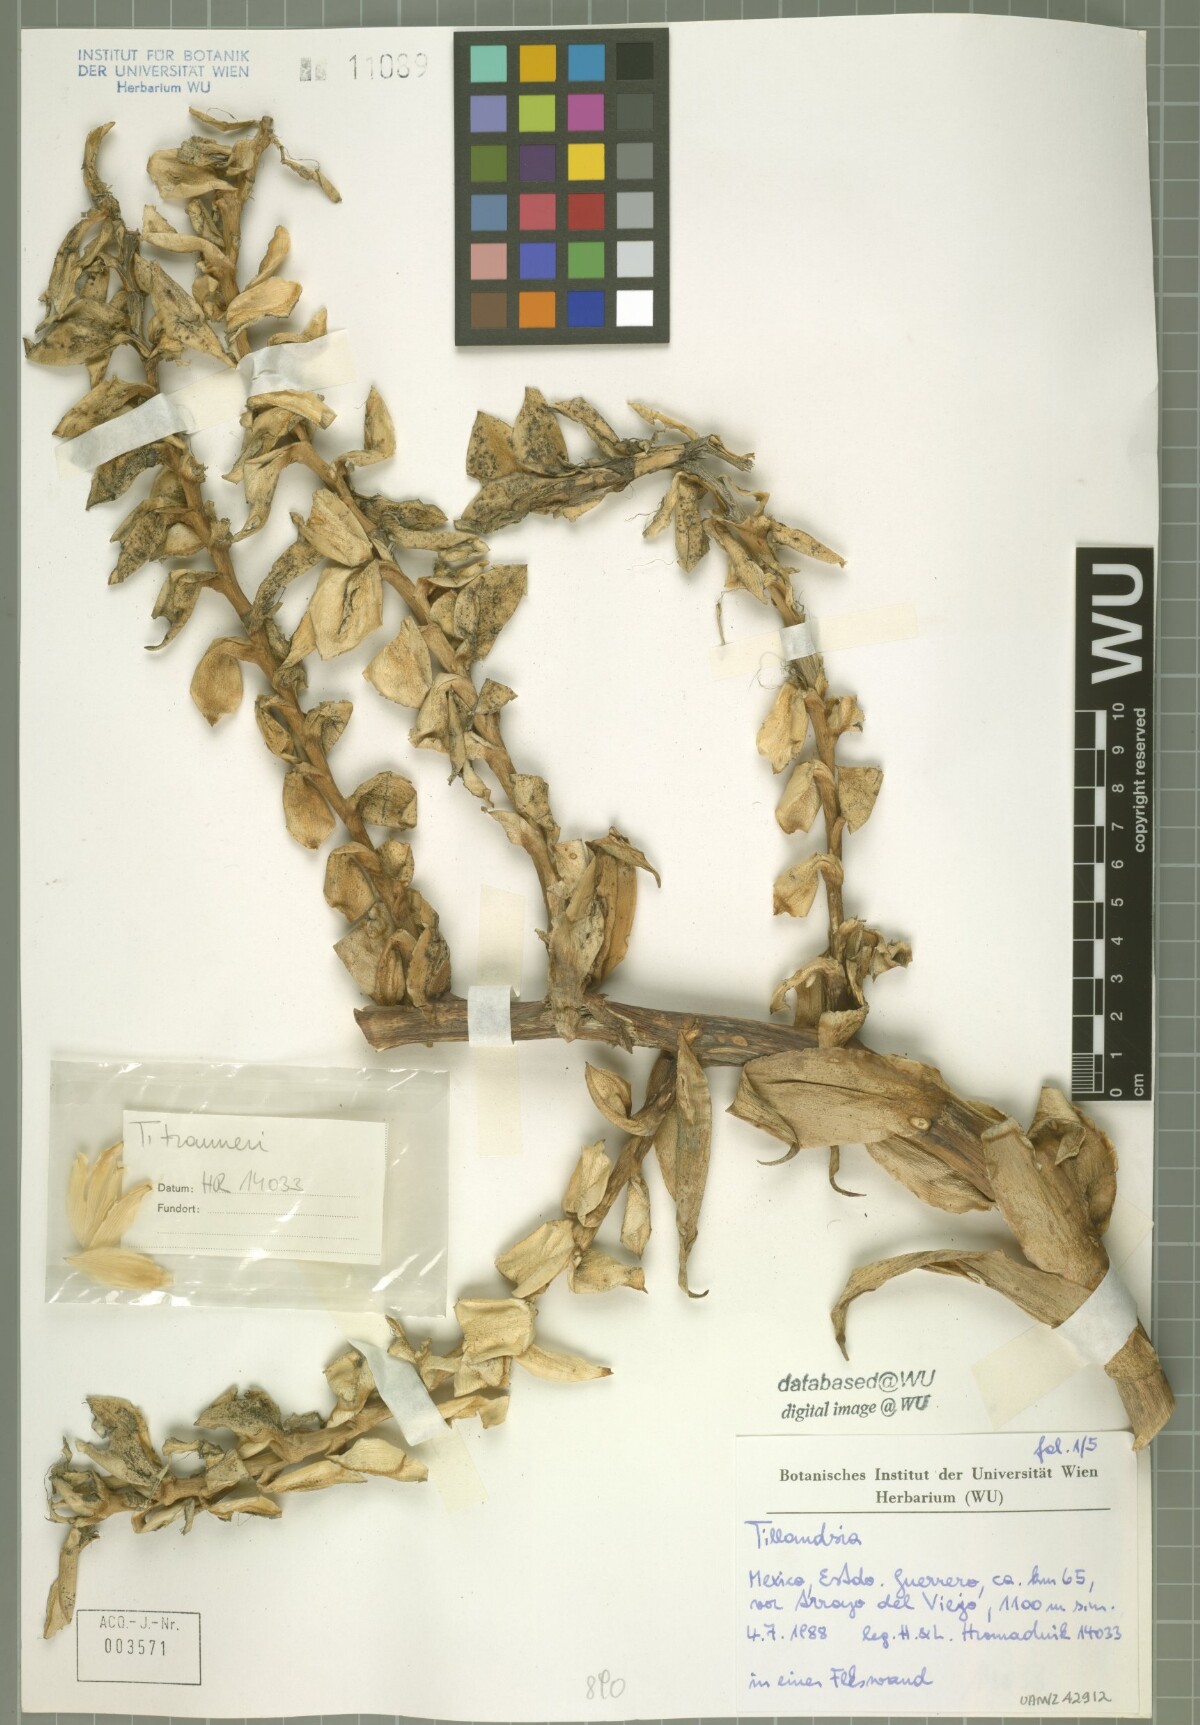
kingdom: Plantae
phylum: Tracheophyta
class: Liliopsida
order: Poales
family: Bromeliaceae
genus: Tillandsia
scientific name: Tillandsia trauneri
